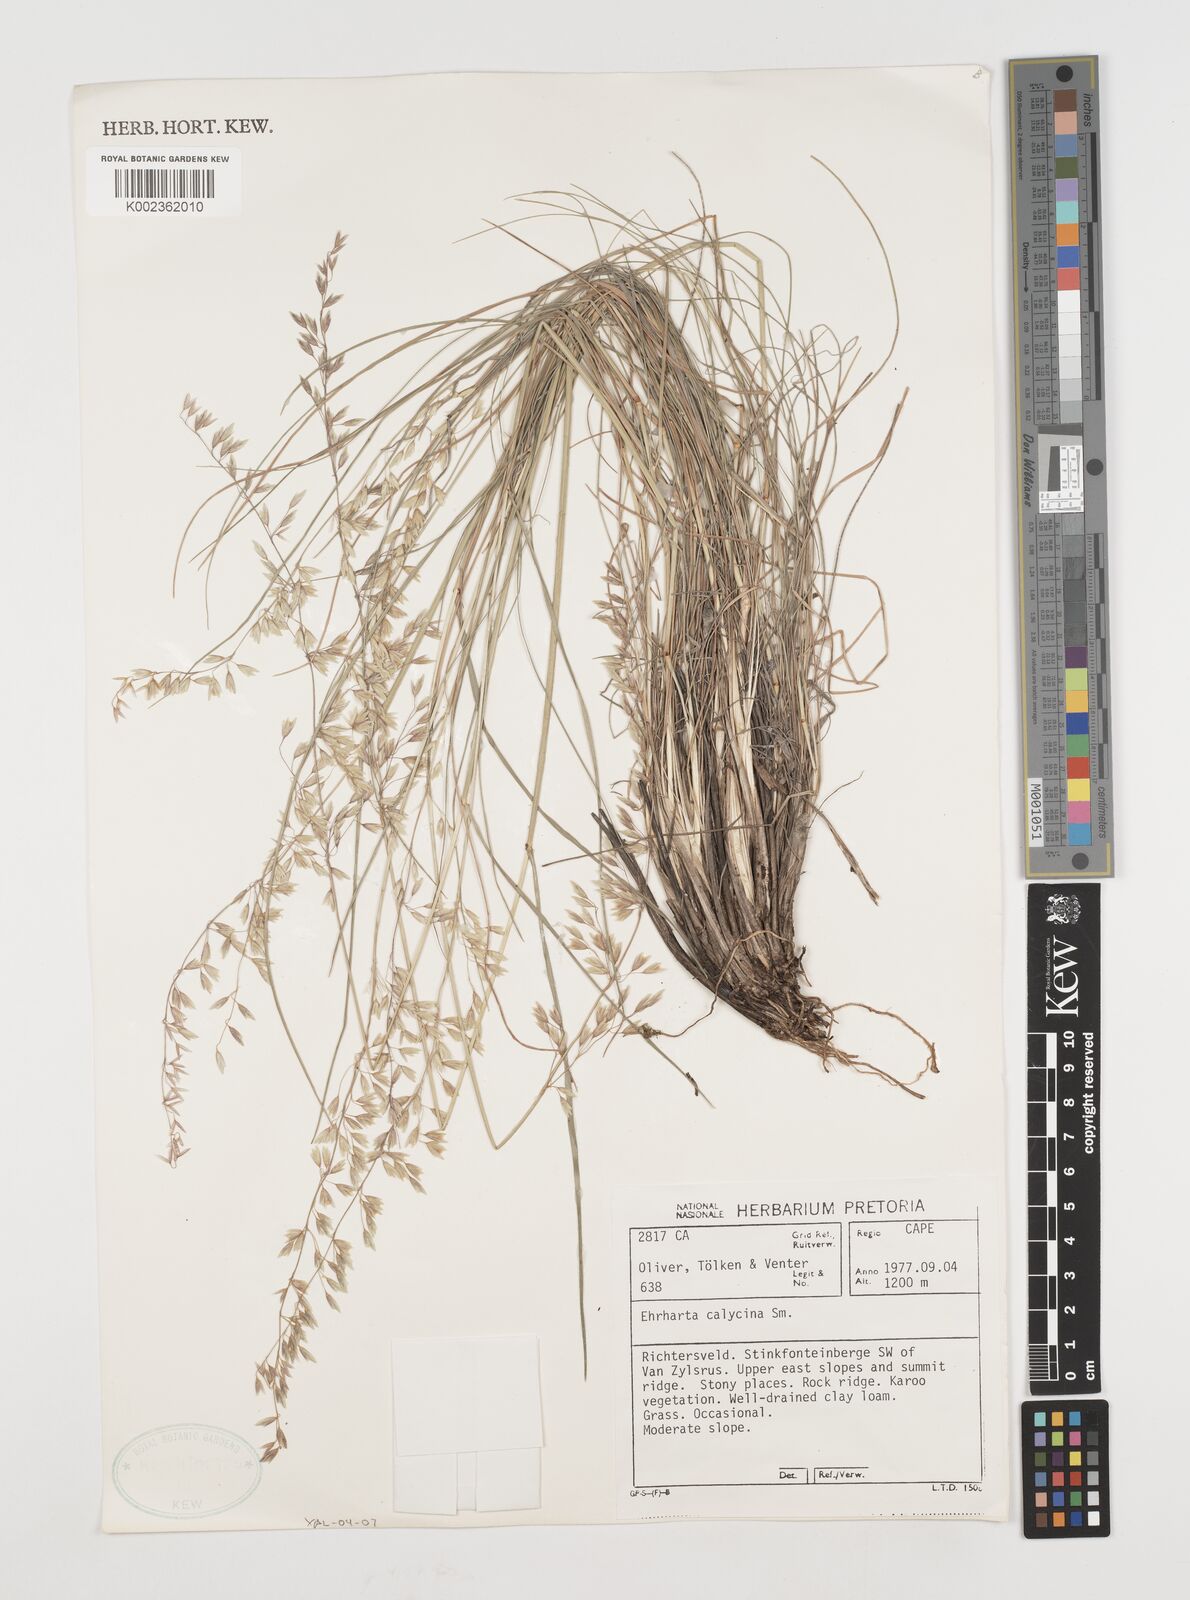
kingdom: Plantae
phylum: Tracheophyta
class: Liliopsida
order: Poales
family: Poaceae
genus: Ehrharta
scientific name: Ehrharta calycina
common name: Perennial veldtgrass
